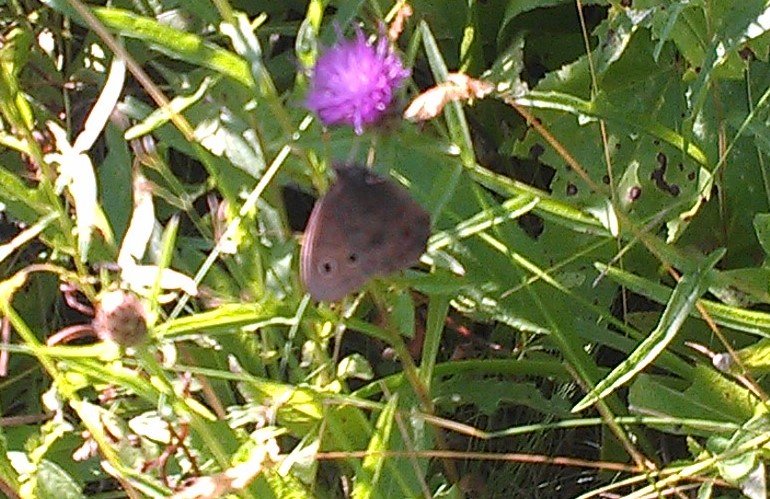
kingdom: Animalia
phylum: Arthropoda
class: Insecta
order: Lepidoptera
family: Nymphalidae
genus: Cercyonis
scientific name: Cercyonis pegala
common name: Common Wood-Nymph
